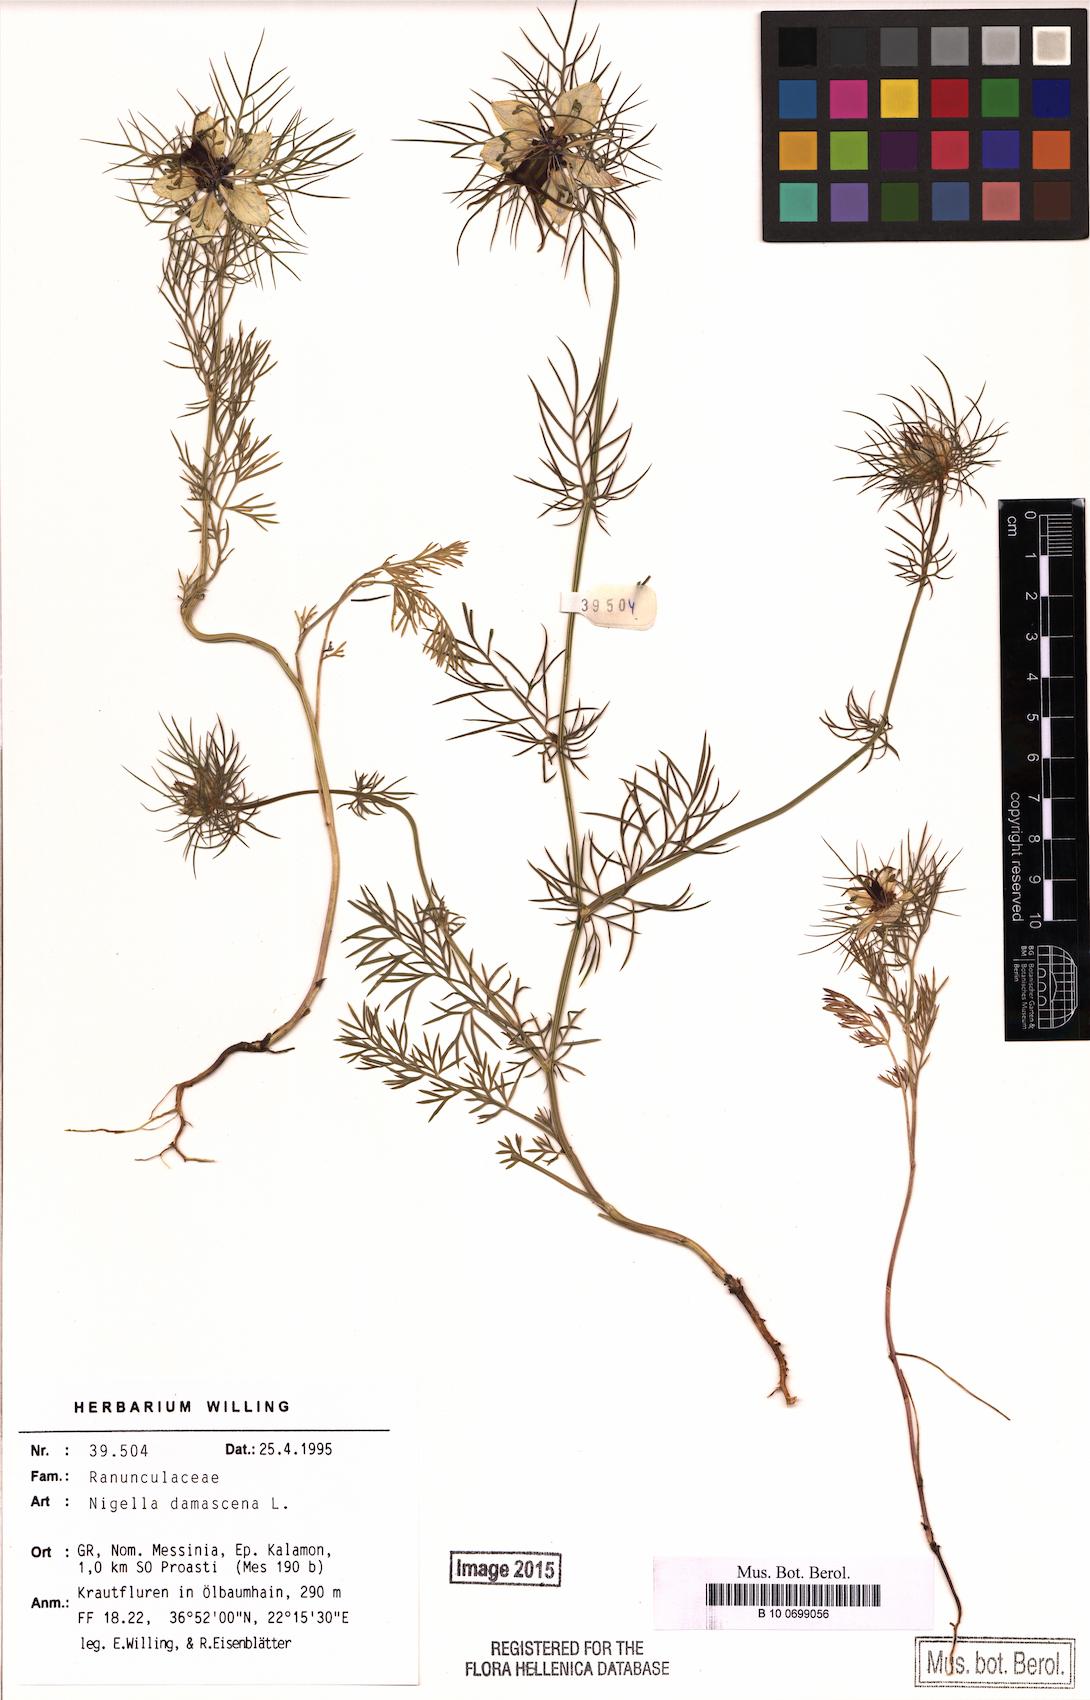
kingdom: Plantae
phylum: Tracheophyta
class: Magnoliopsida
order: Ranunculales
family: Ranunculaceae
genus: Nigella
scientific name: Nigella damascena
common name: Love-in-a-mist
